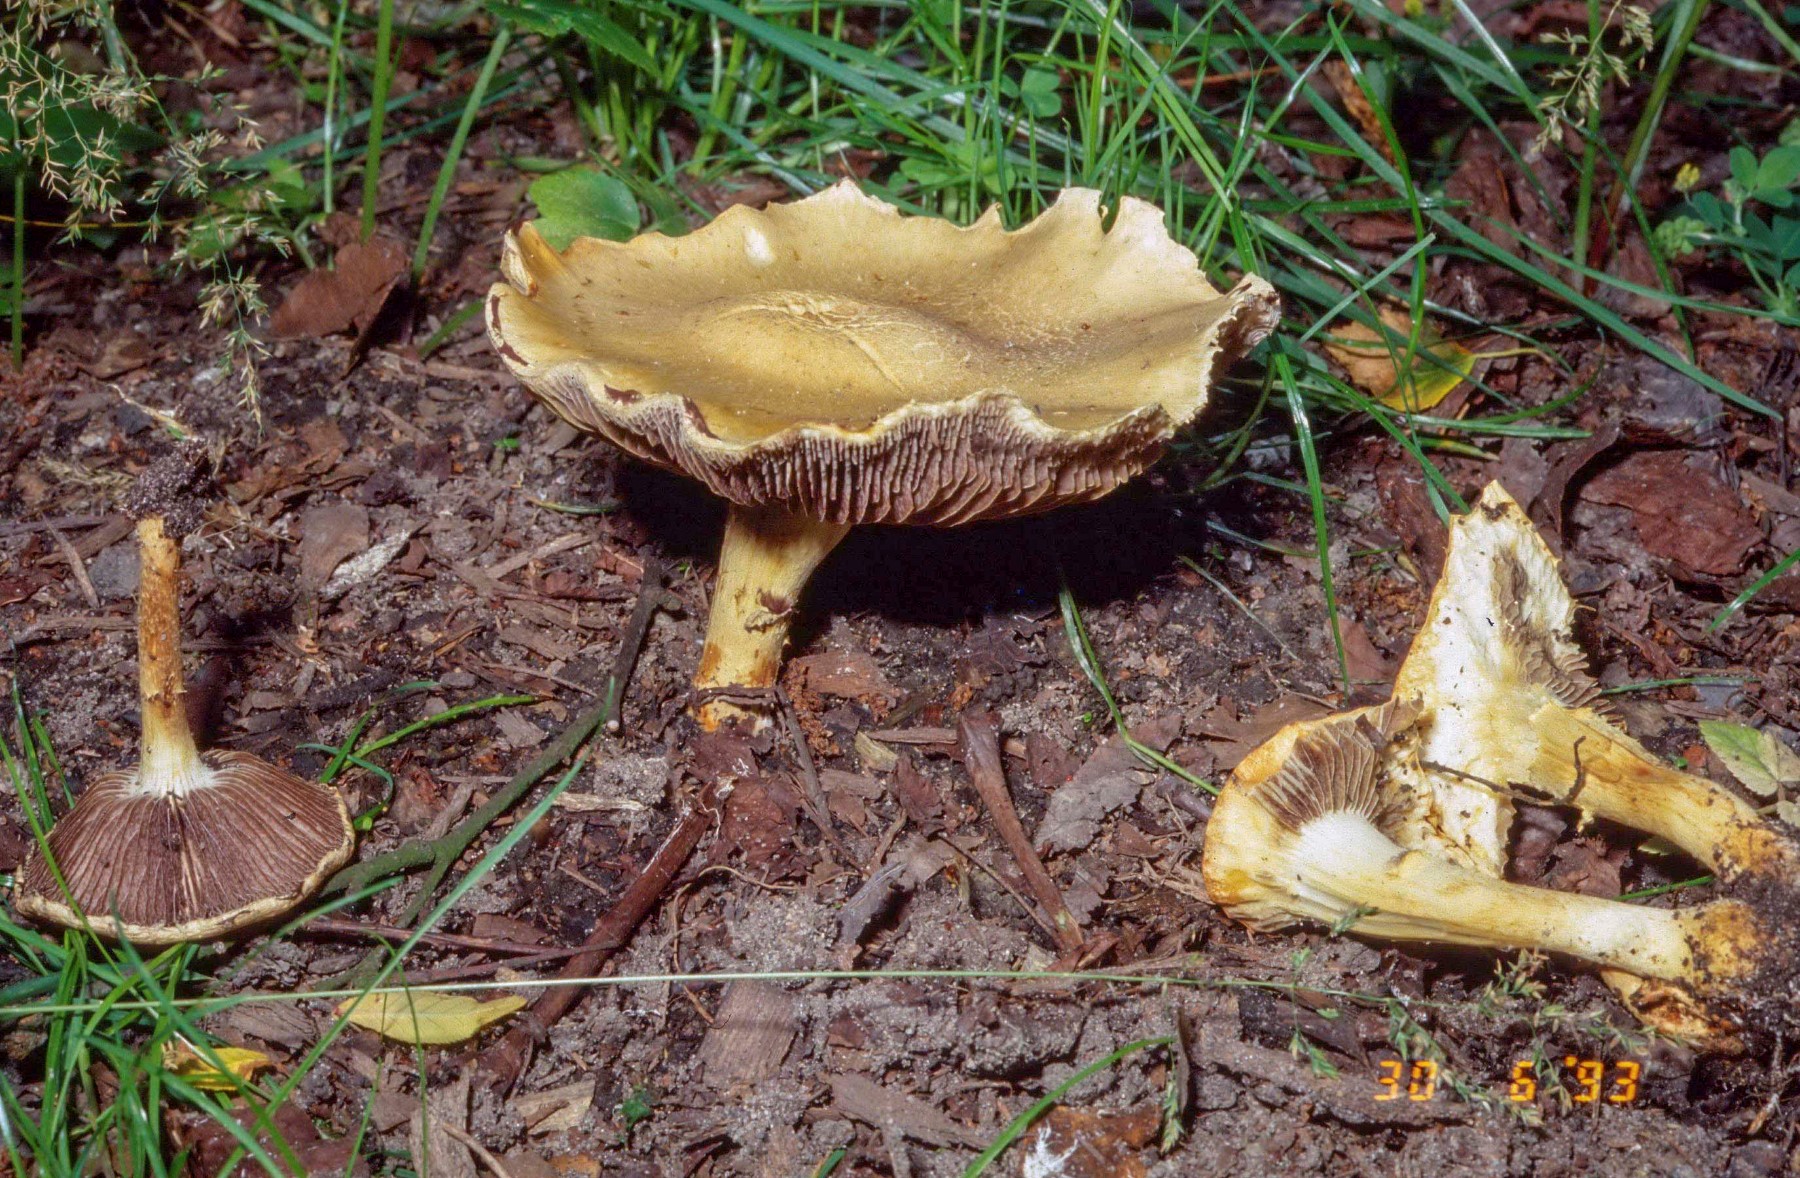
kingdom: Fungi
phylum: Basidiomycota
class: Agaricomycetes
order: Agaricales
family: Strophariaceae
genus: Leratiomyces
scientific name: Leratiomyces percevalii
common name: træflis-bredblad
